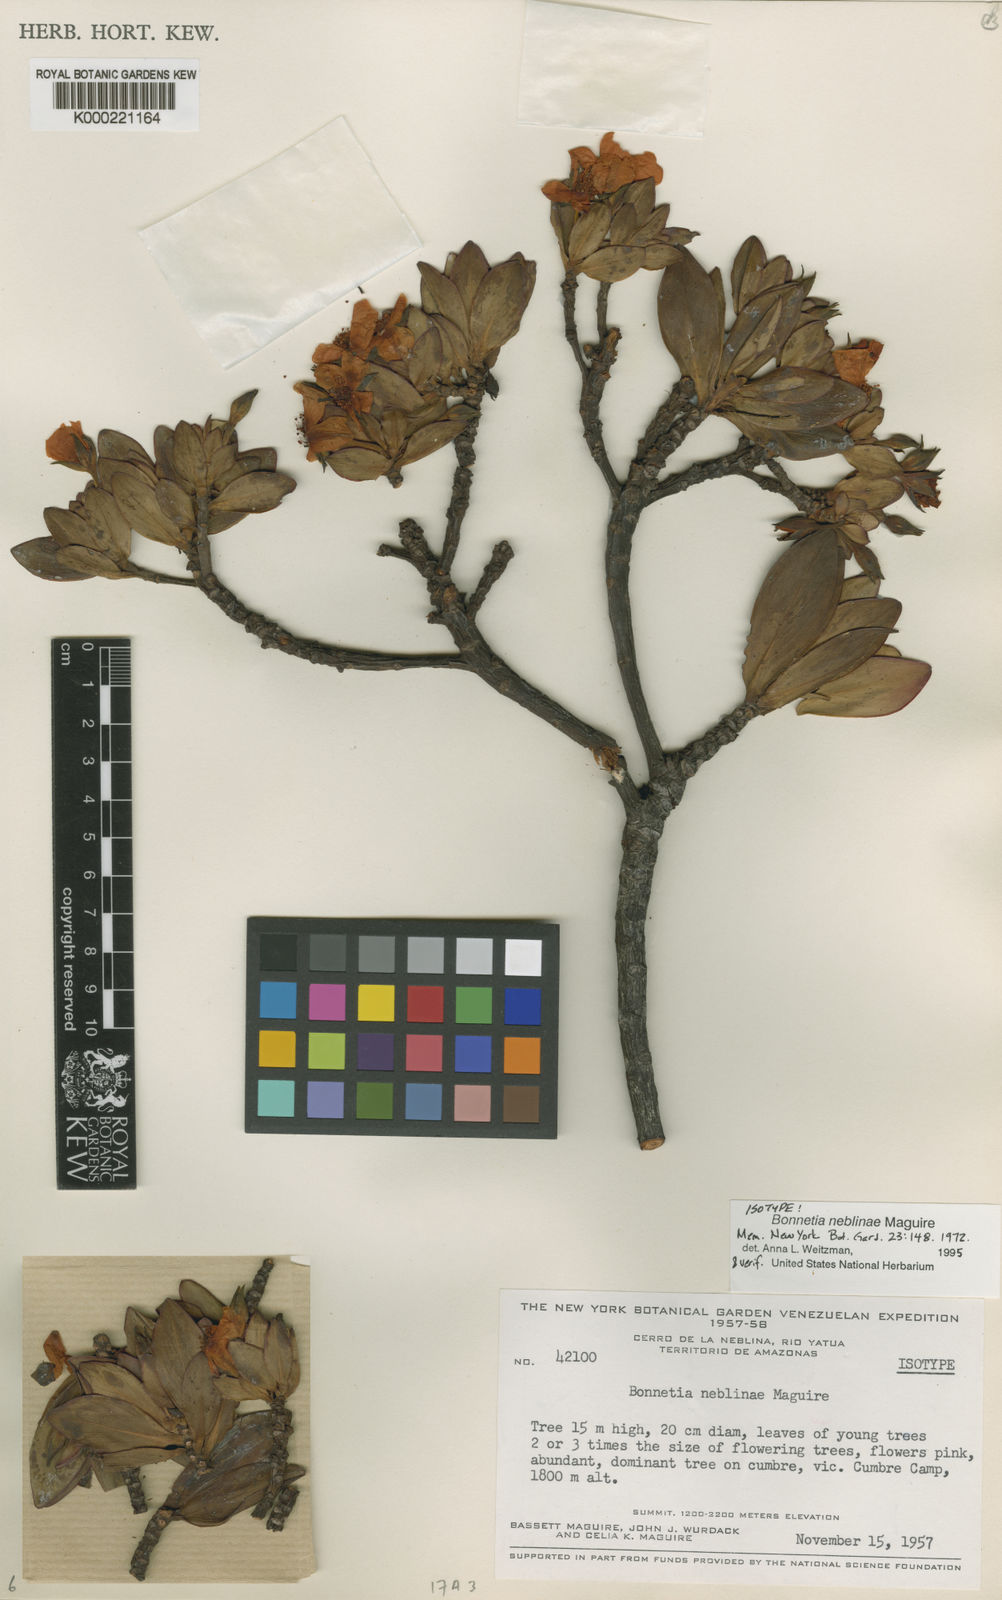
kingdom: Plantae
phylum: Tracheophyta
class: Magnoliopsida
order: Malpighiales
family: Bonnetiaceae
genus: Bonnetia
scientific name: Bonnetia neblinae
